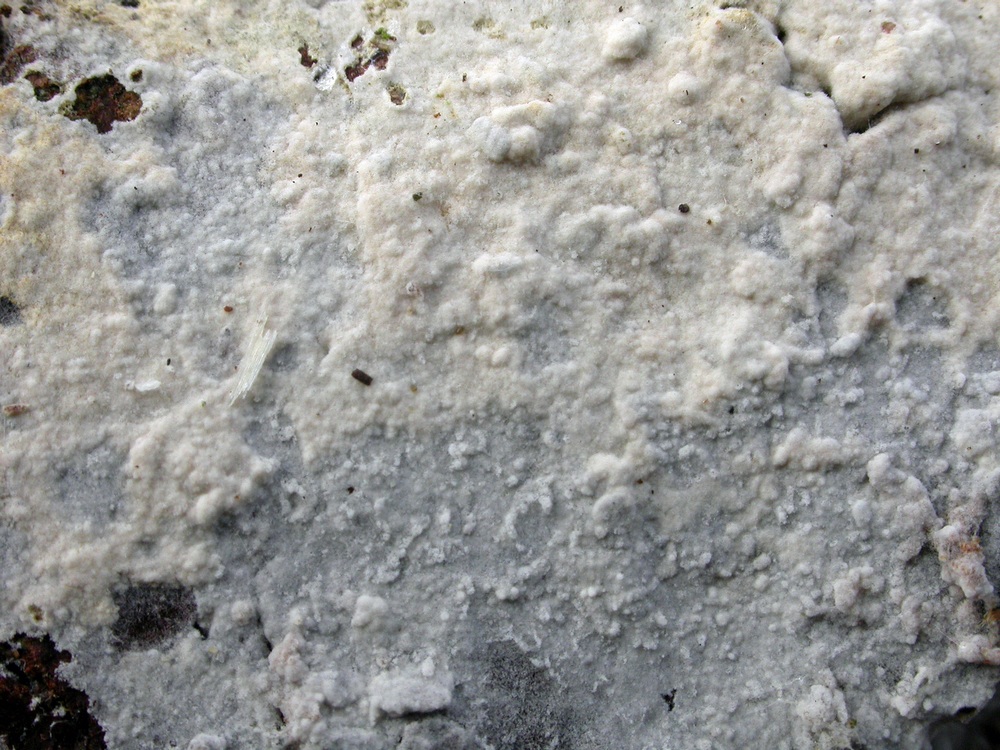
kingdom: Fungi
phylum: Basidiomycota
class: Agaricomycetes
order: Cantharellales
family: Botryobasidiaceae
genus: Botryobasidium
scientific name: Botryobasidium subcoronatum
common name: almindelig spindhinde
